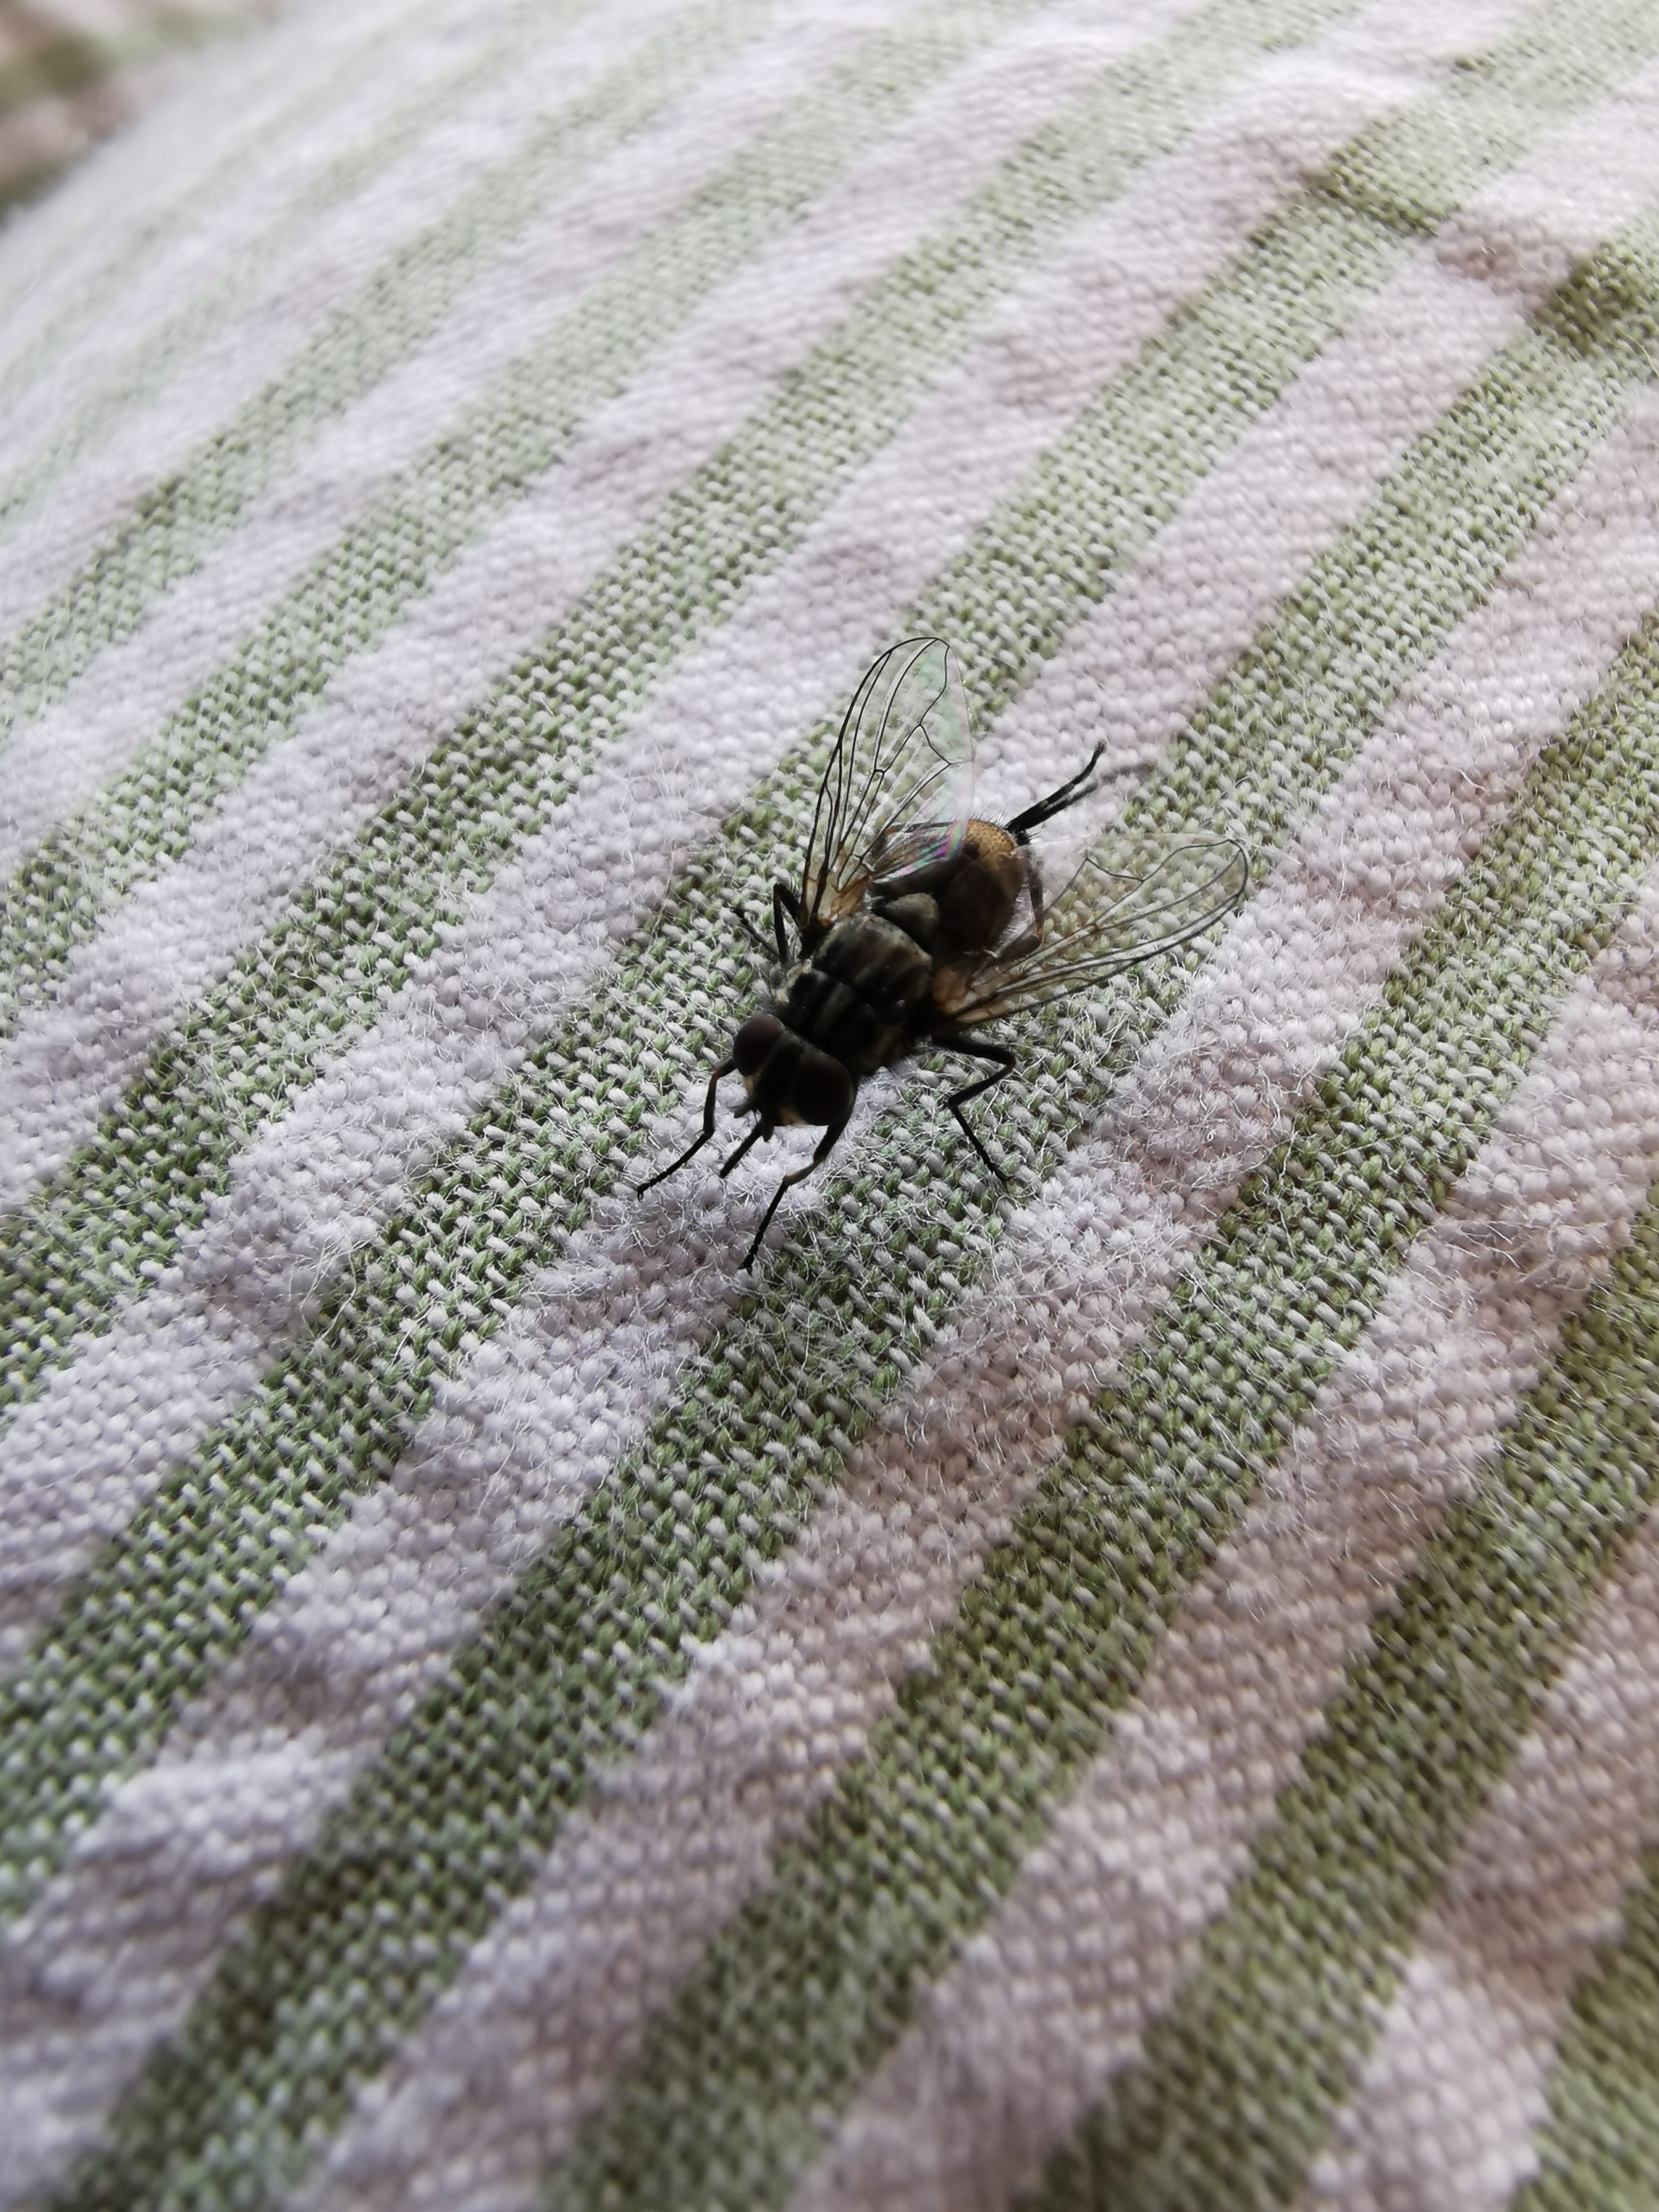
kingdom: Animalia
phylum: Arthropoda
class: Insecta
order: Diptera
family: Muscidae
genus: Stomoxys
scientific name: Stomoxys calcitrans
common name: Stikflue
